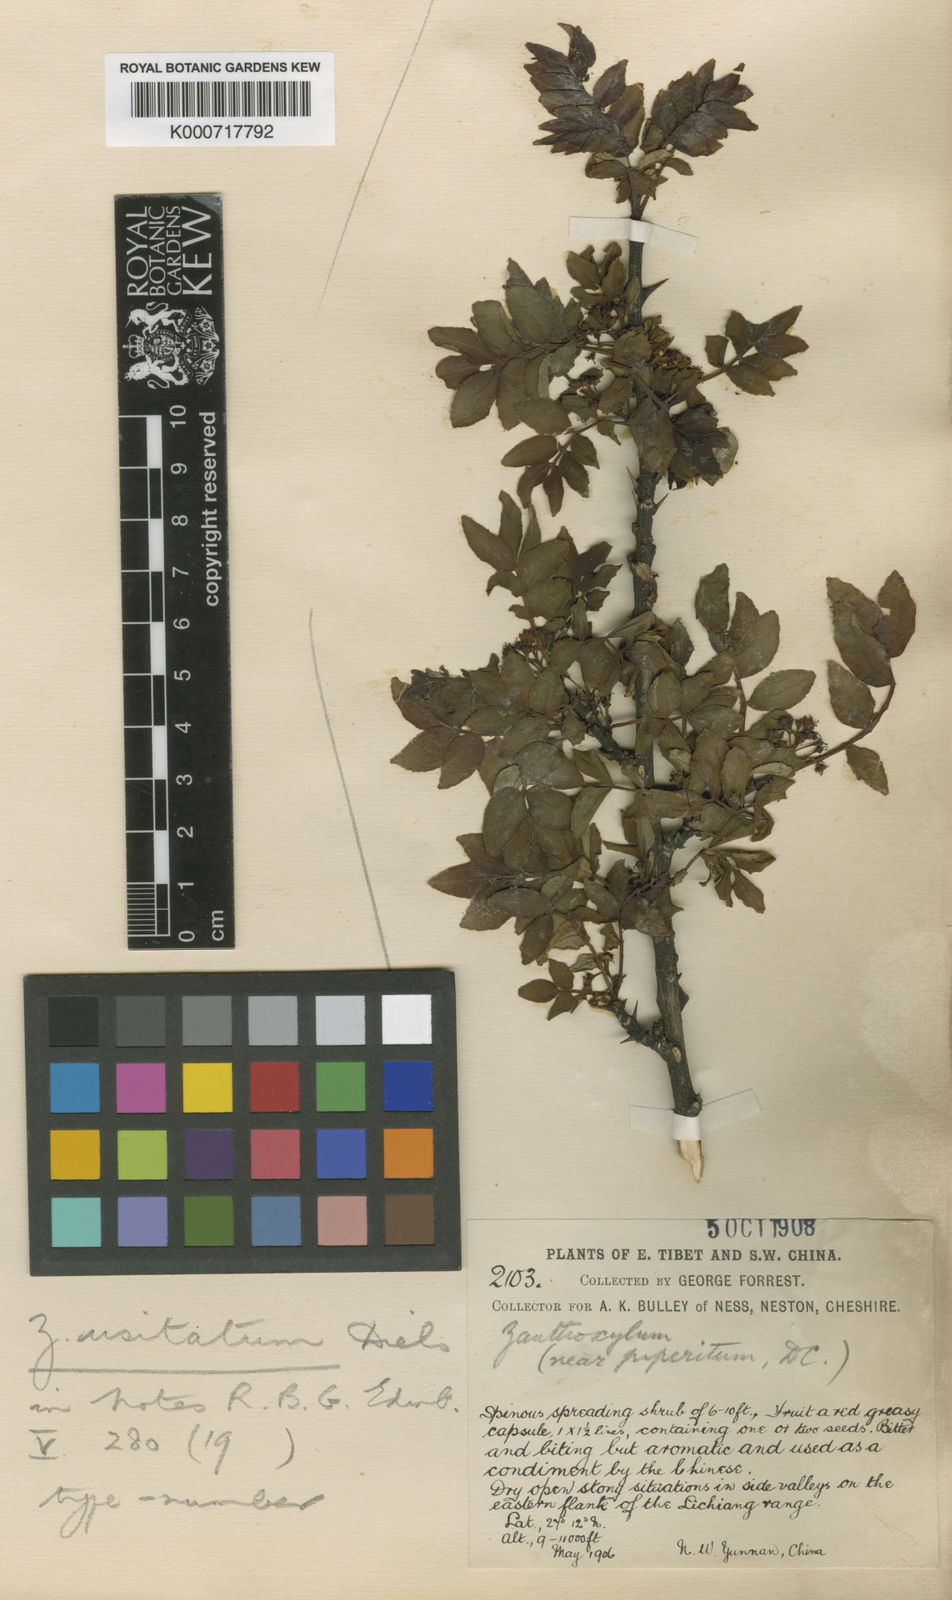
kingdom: Plantae
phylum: Tracheophyta
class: Magnoliopsida
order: Sapindales
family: Rutaceae
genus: Zanthoxylum
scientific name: Zanthoxylum simulans
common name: Chinese-pepper
